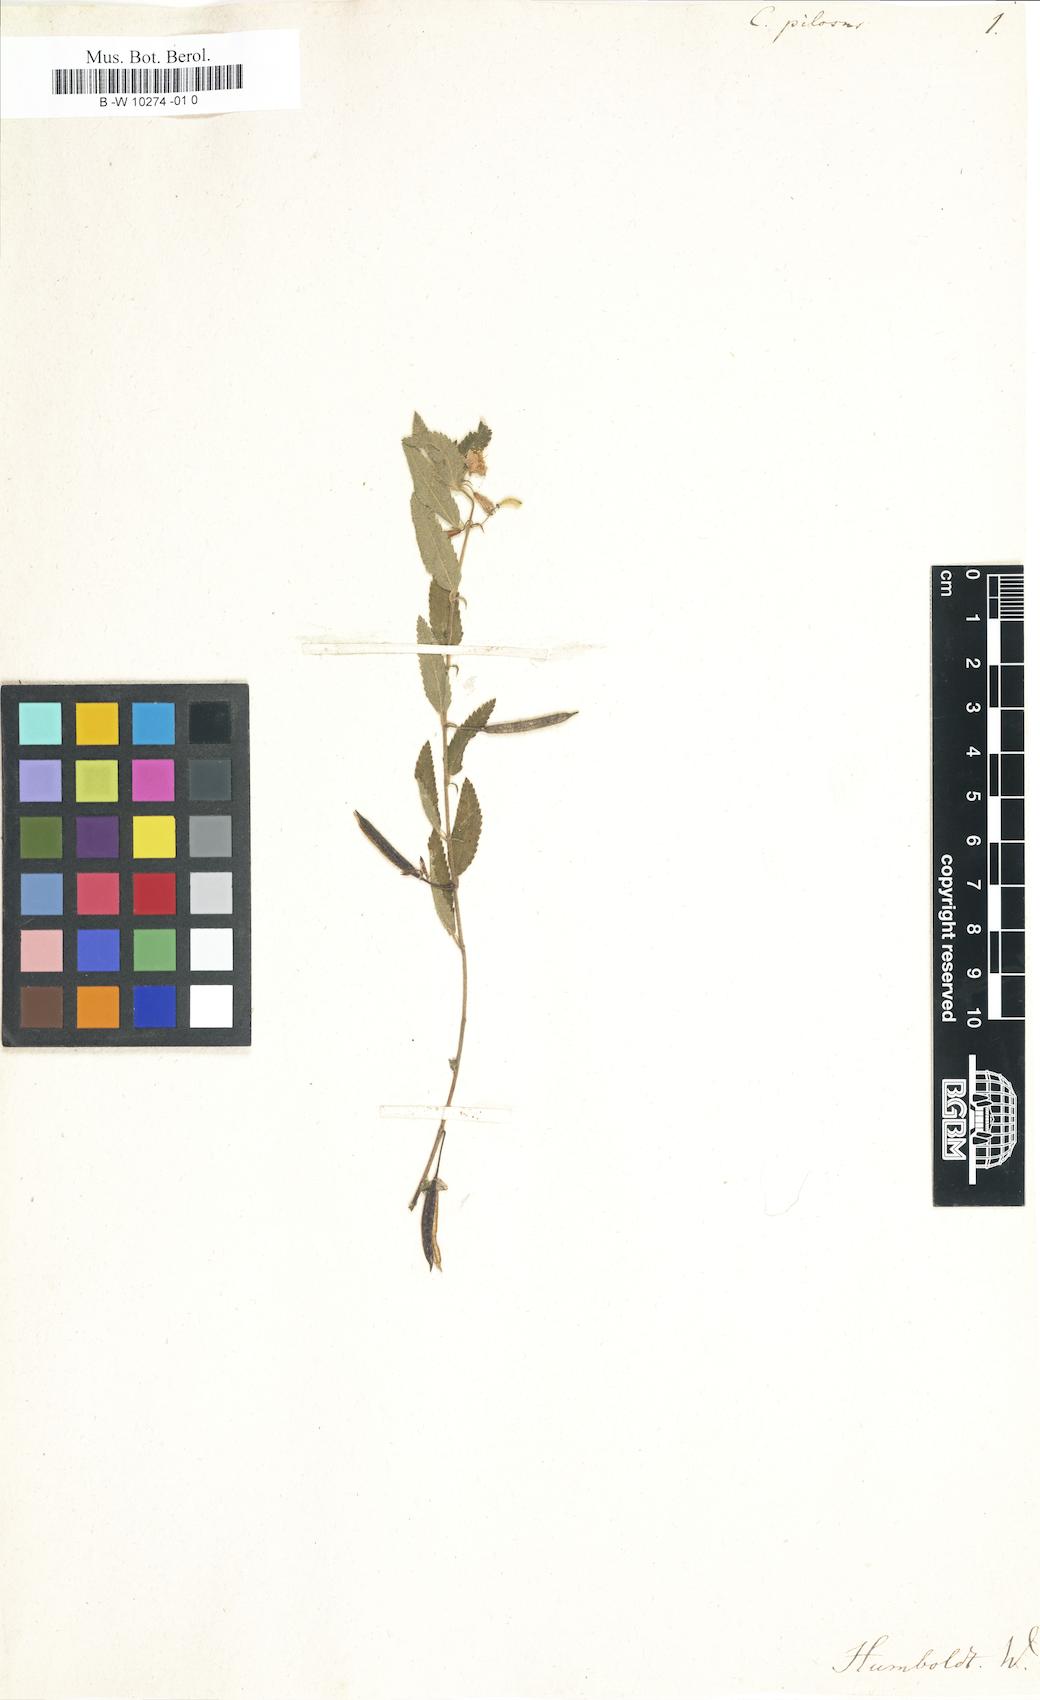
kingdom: Plantae
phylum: Tracheophyta
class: Magnoliopsida
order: Malvales
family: Malvaceae
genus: Corchorus
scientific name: Corchorus hirtus
